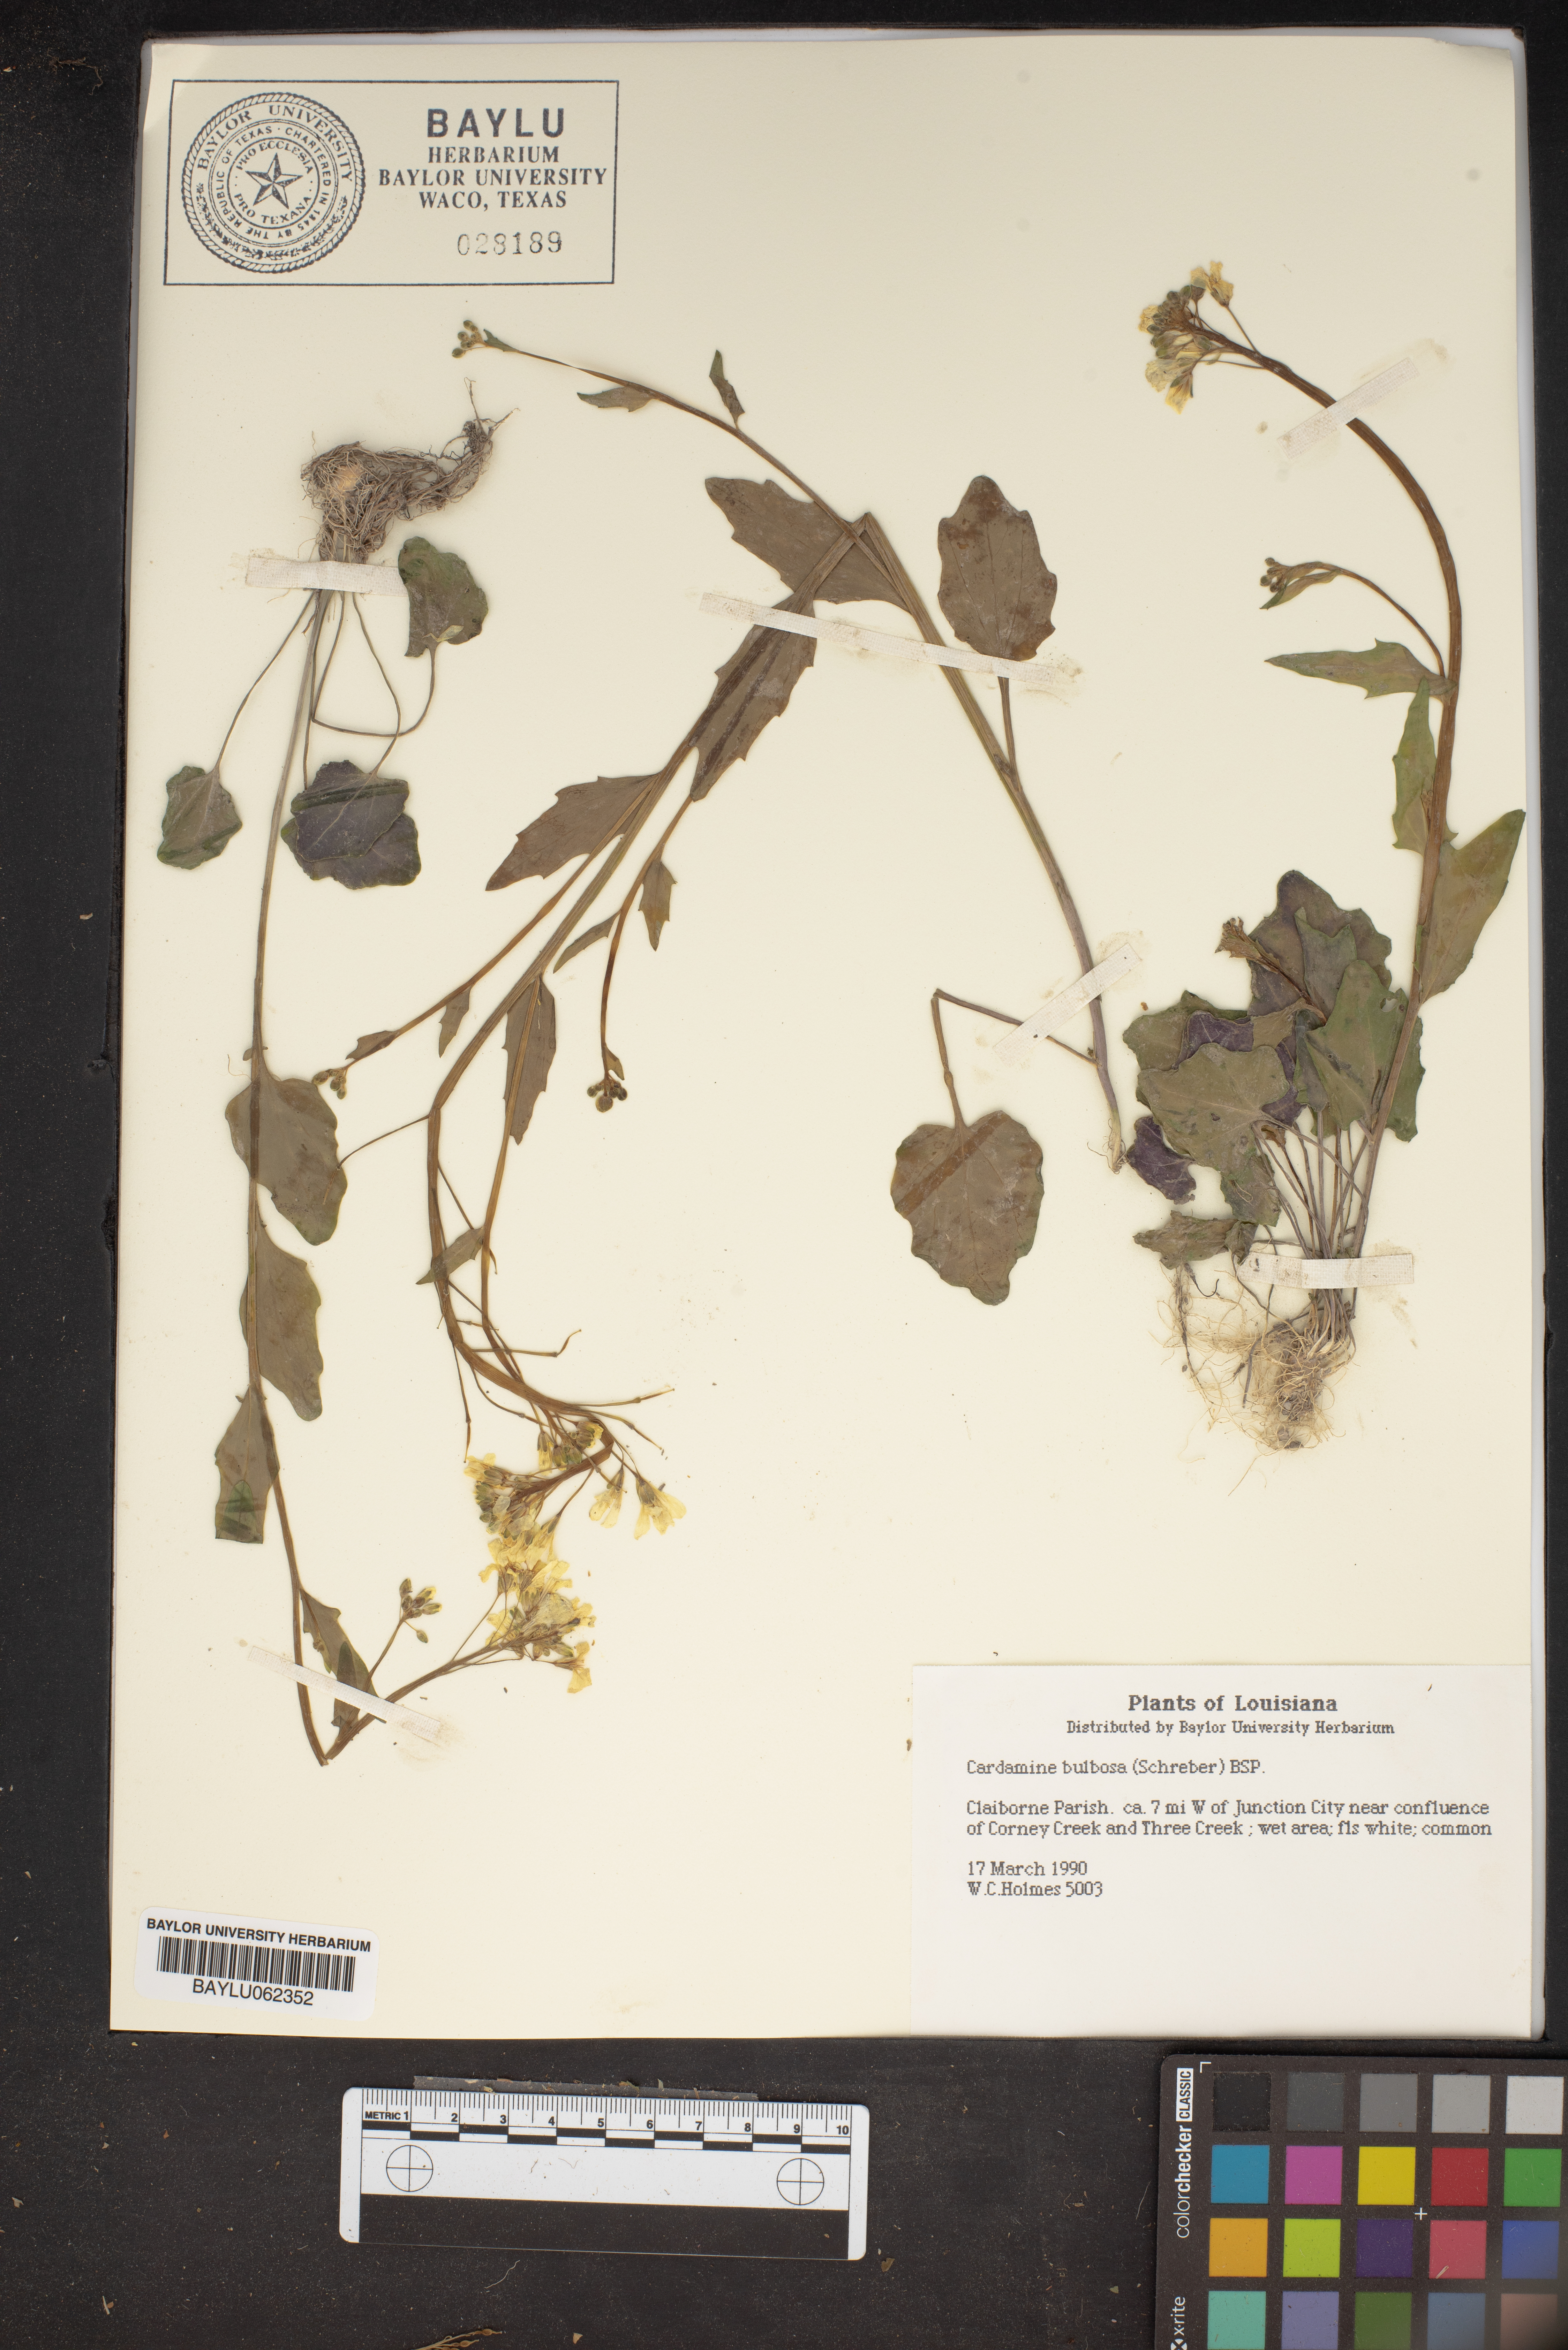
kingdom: Plantae
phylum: Tracheophyta
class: Magnoliopsida
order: Brassicales
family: Brassicaceae
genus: Cardamine
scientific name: Cardamine bulbosa
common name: Spring cress
